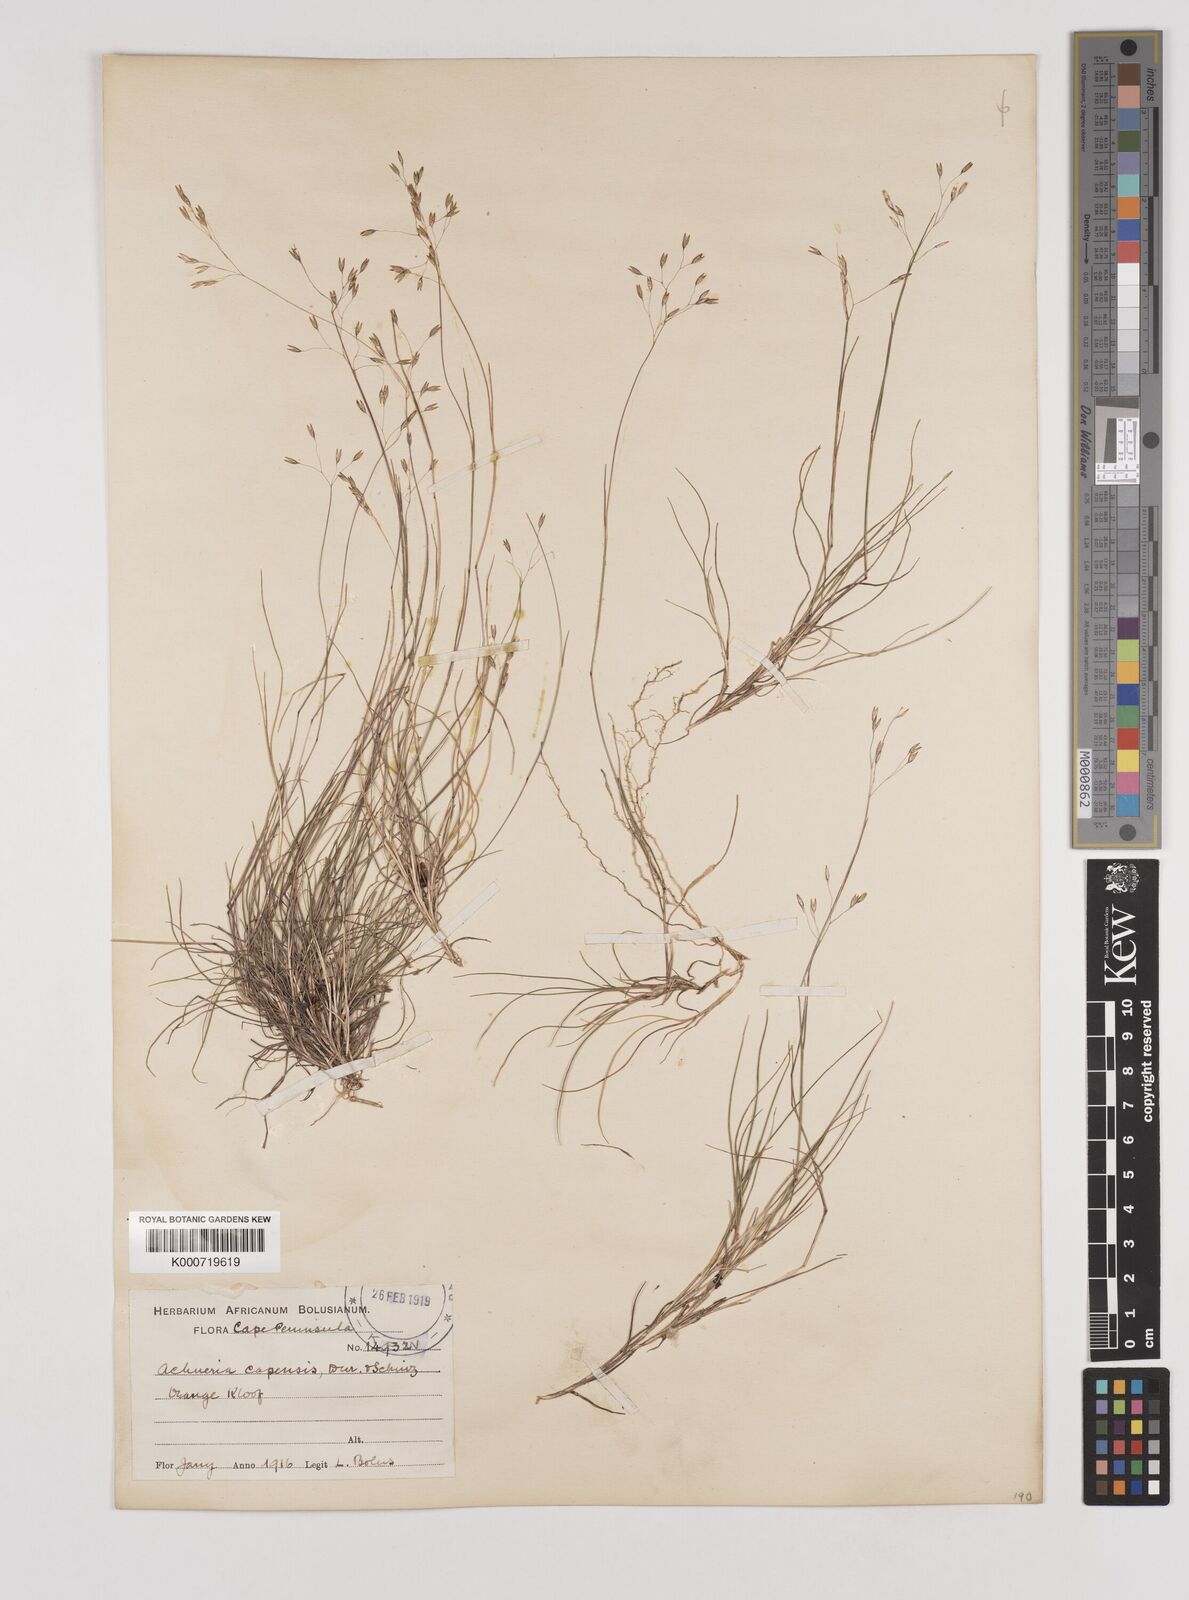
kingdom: Plantae
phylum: Tracheophyta
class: Liliopsida
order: Poales
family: Poaceae
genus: Pentameris
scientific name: Pentameris malouinensis
